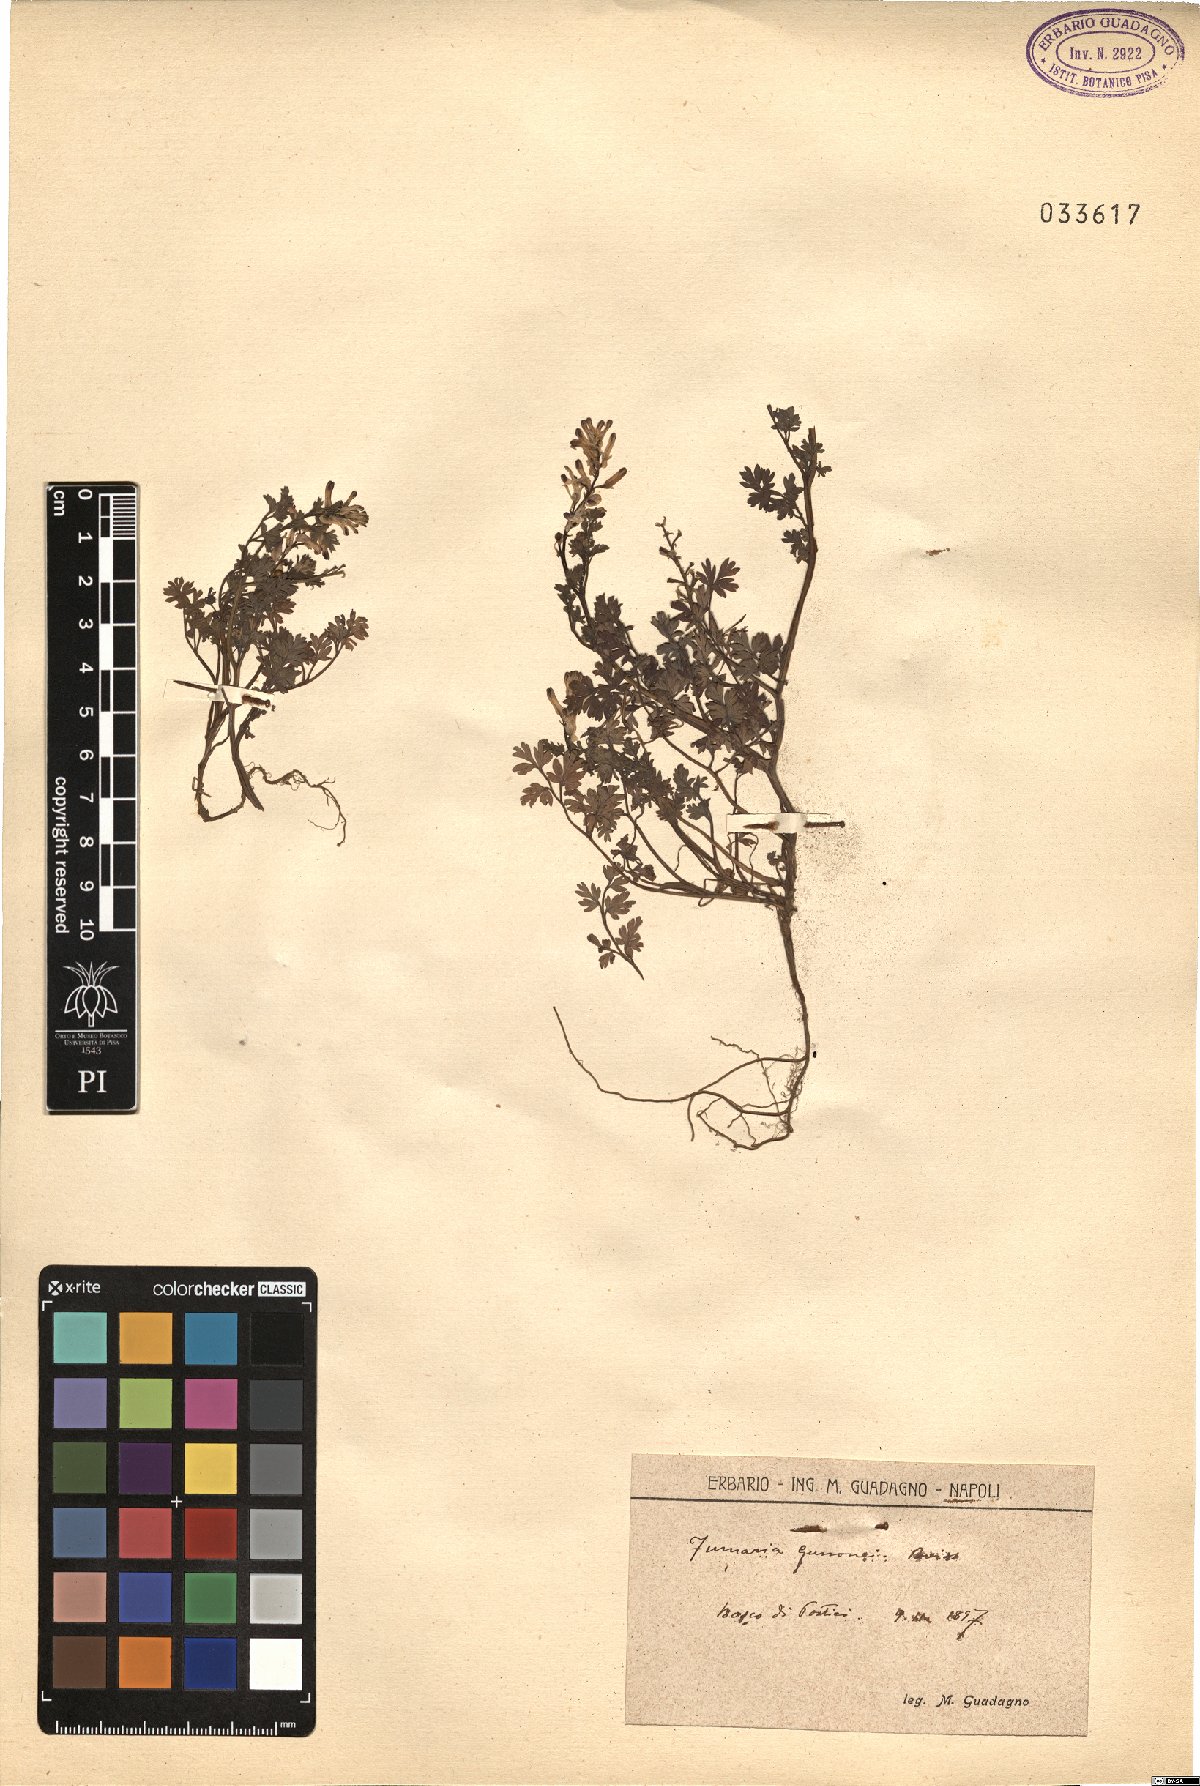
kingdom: Plantae
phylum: Tracheophyta
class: Magnoliopsida
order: Ranunculales
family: Papaveraceae
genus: Fumaria
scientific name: Fumaria bastardii
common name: Tall ramping-fumitory
